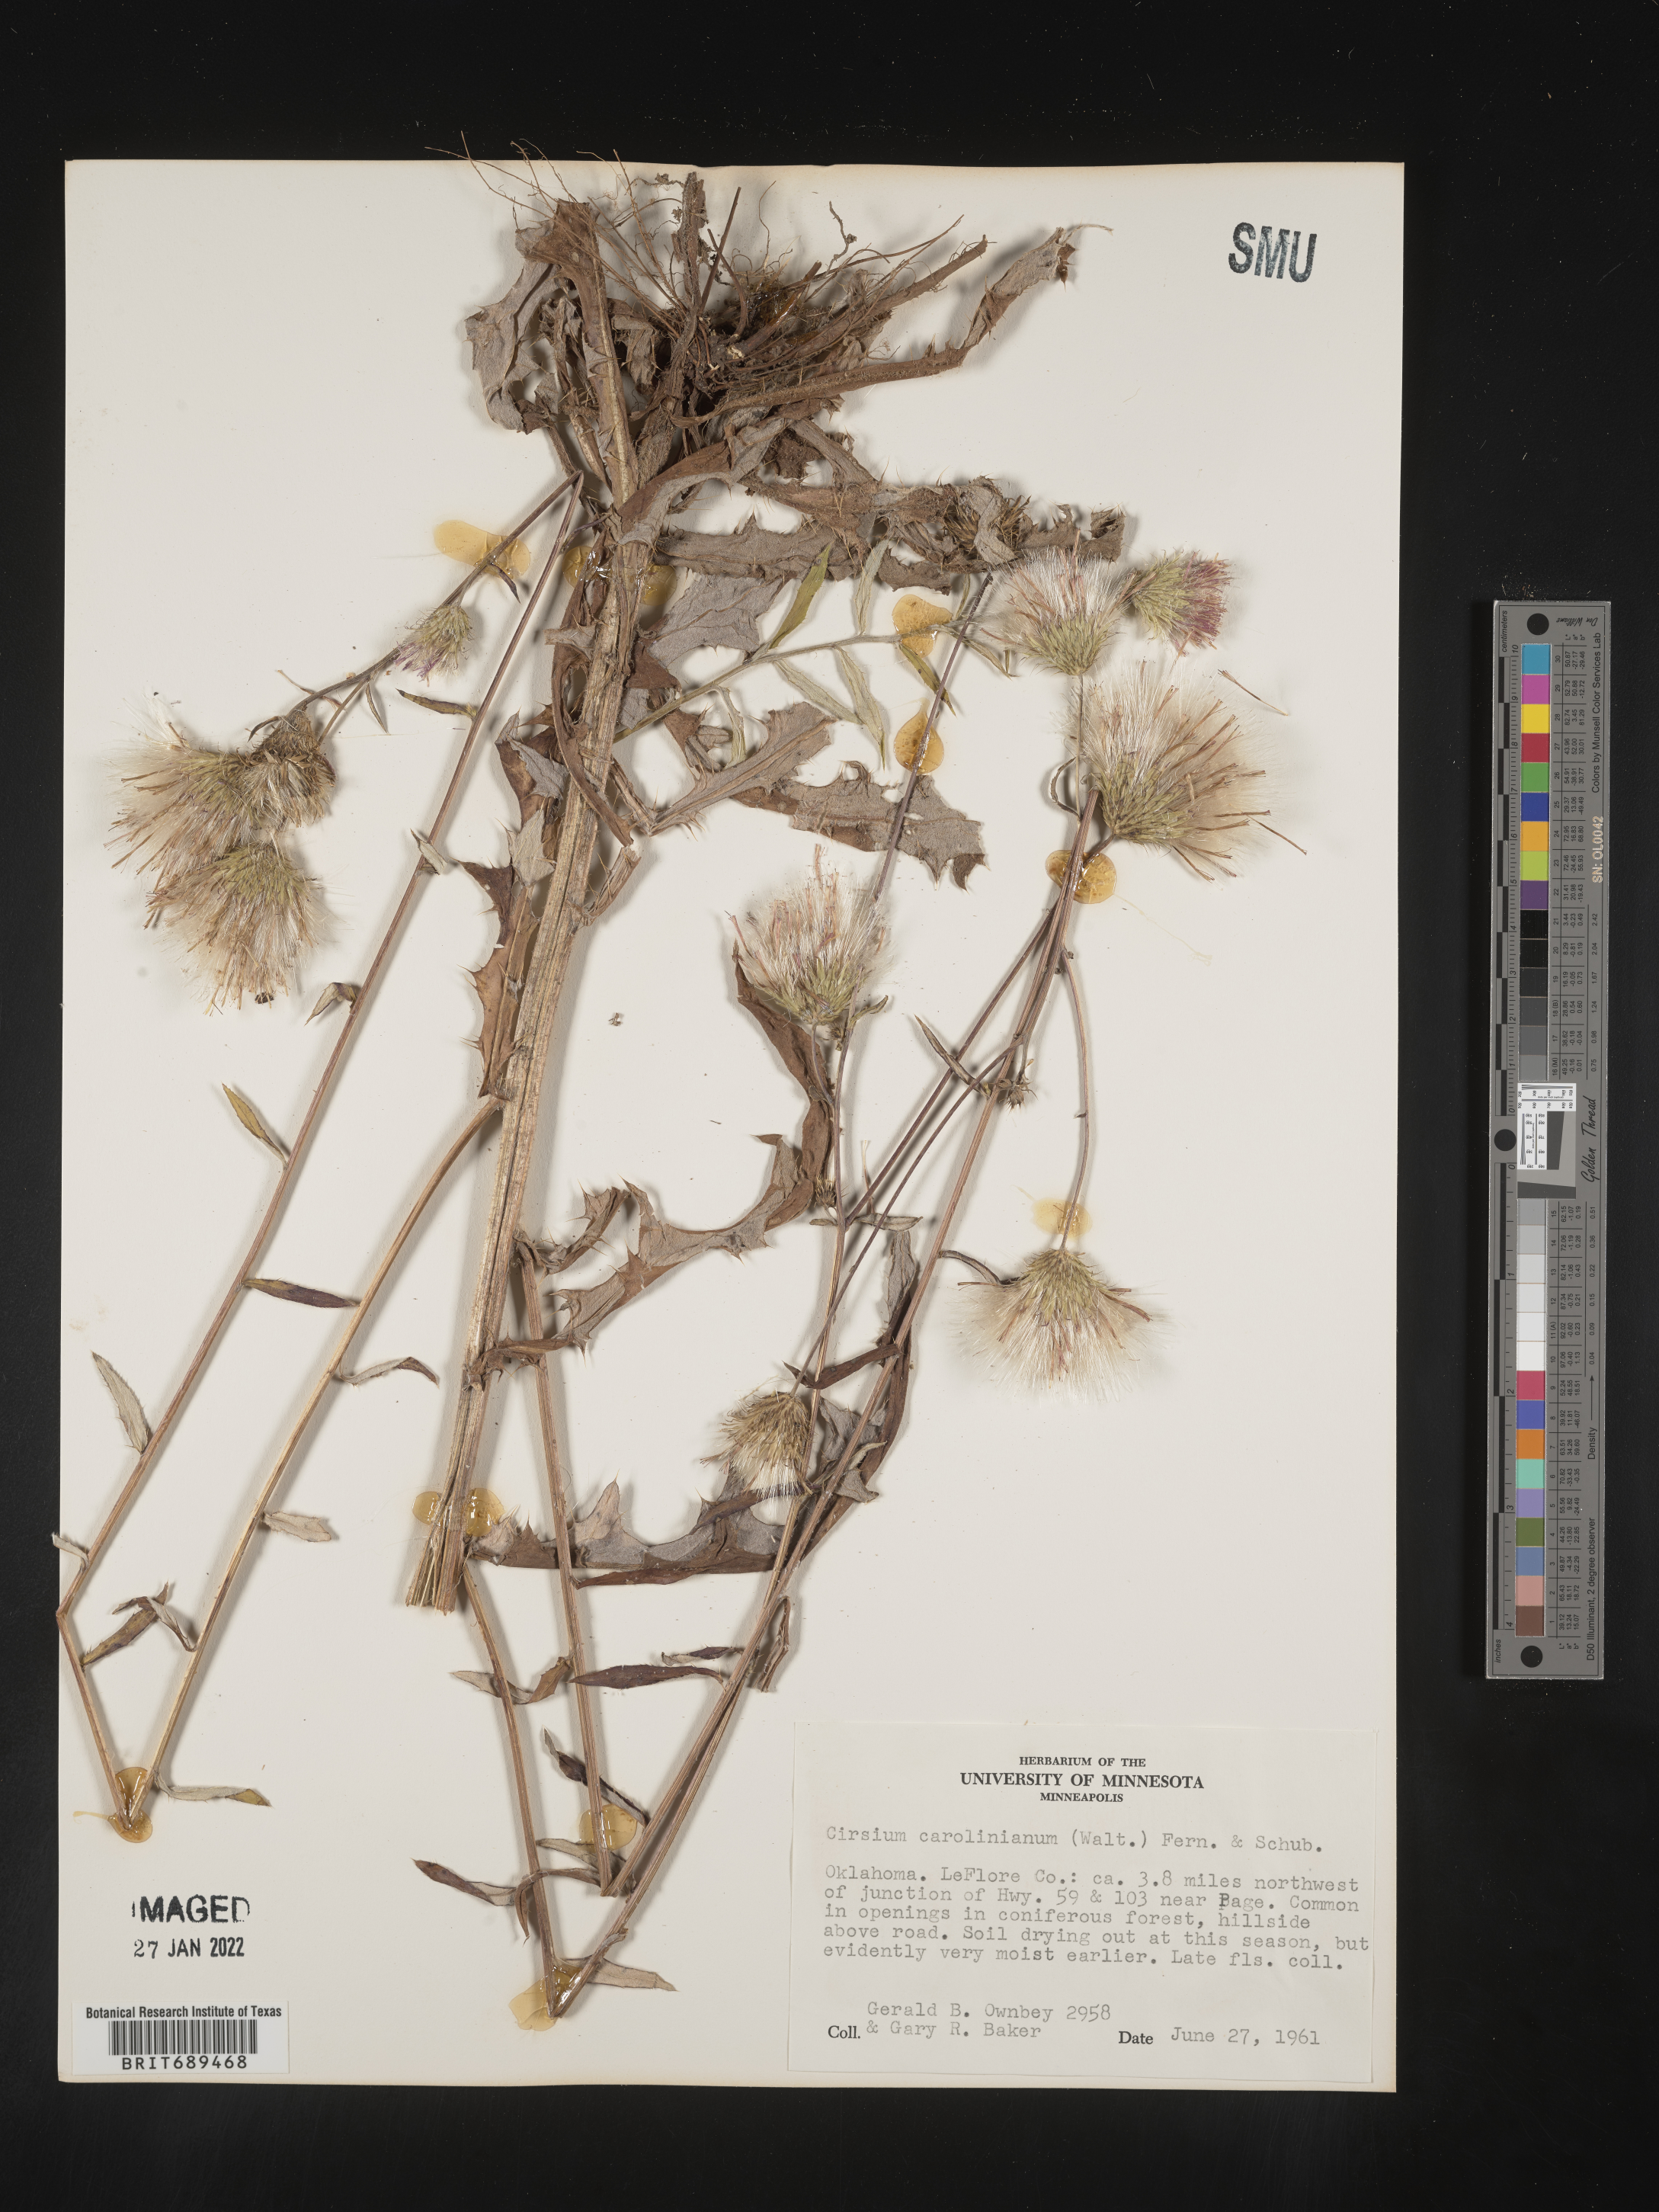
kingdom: Plantae
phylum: Tracheophyta
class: Magnoliopsida
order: Asterales
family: Asteraceae
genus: Cirsium
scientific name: Cirsium carolinianum
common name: Carolina thistle
